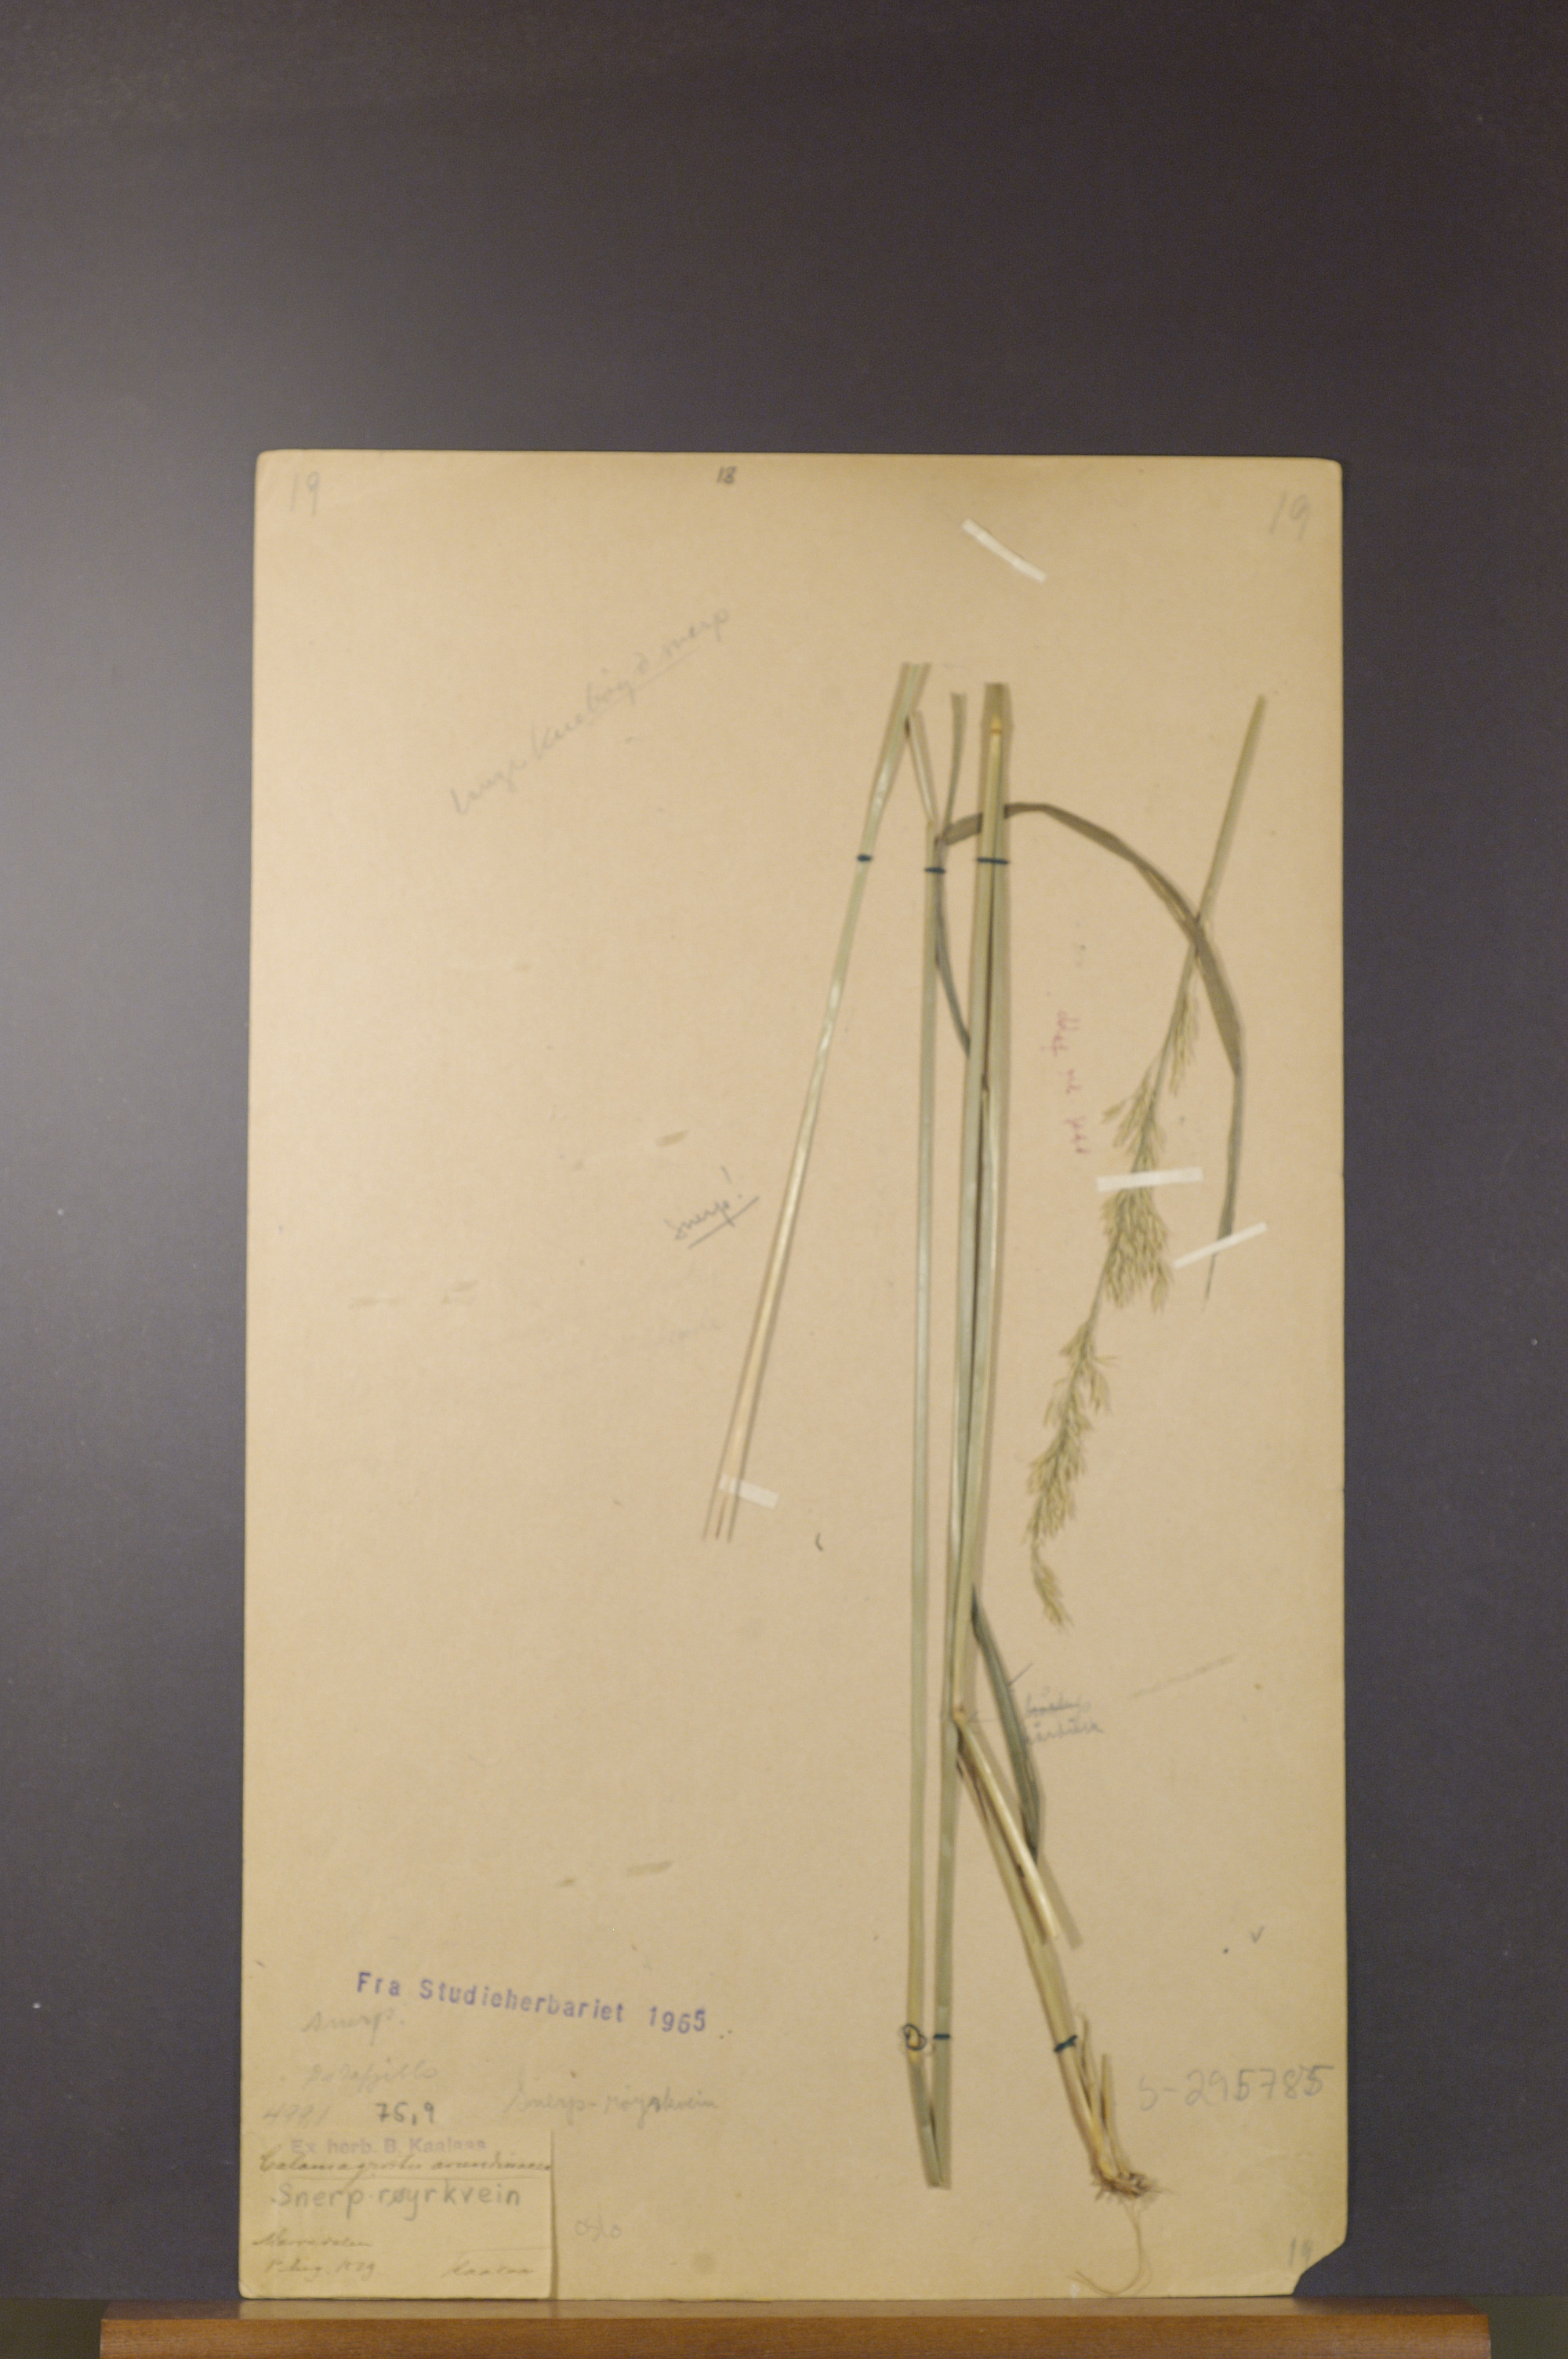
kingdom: Plantae
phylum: Tracheophyta
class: Liliopsida
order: Poales
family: Poaceae
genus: Calamagrostis
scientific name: Calamagrostis arundinacea
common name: Metskastik
